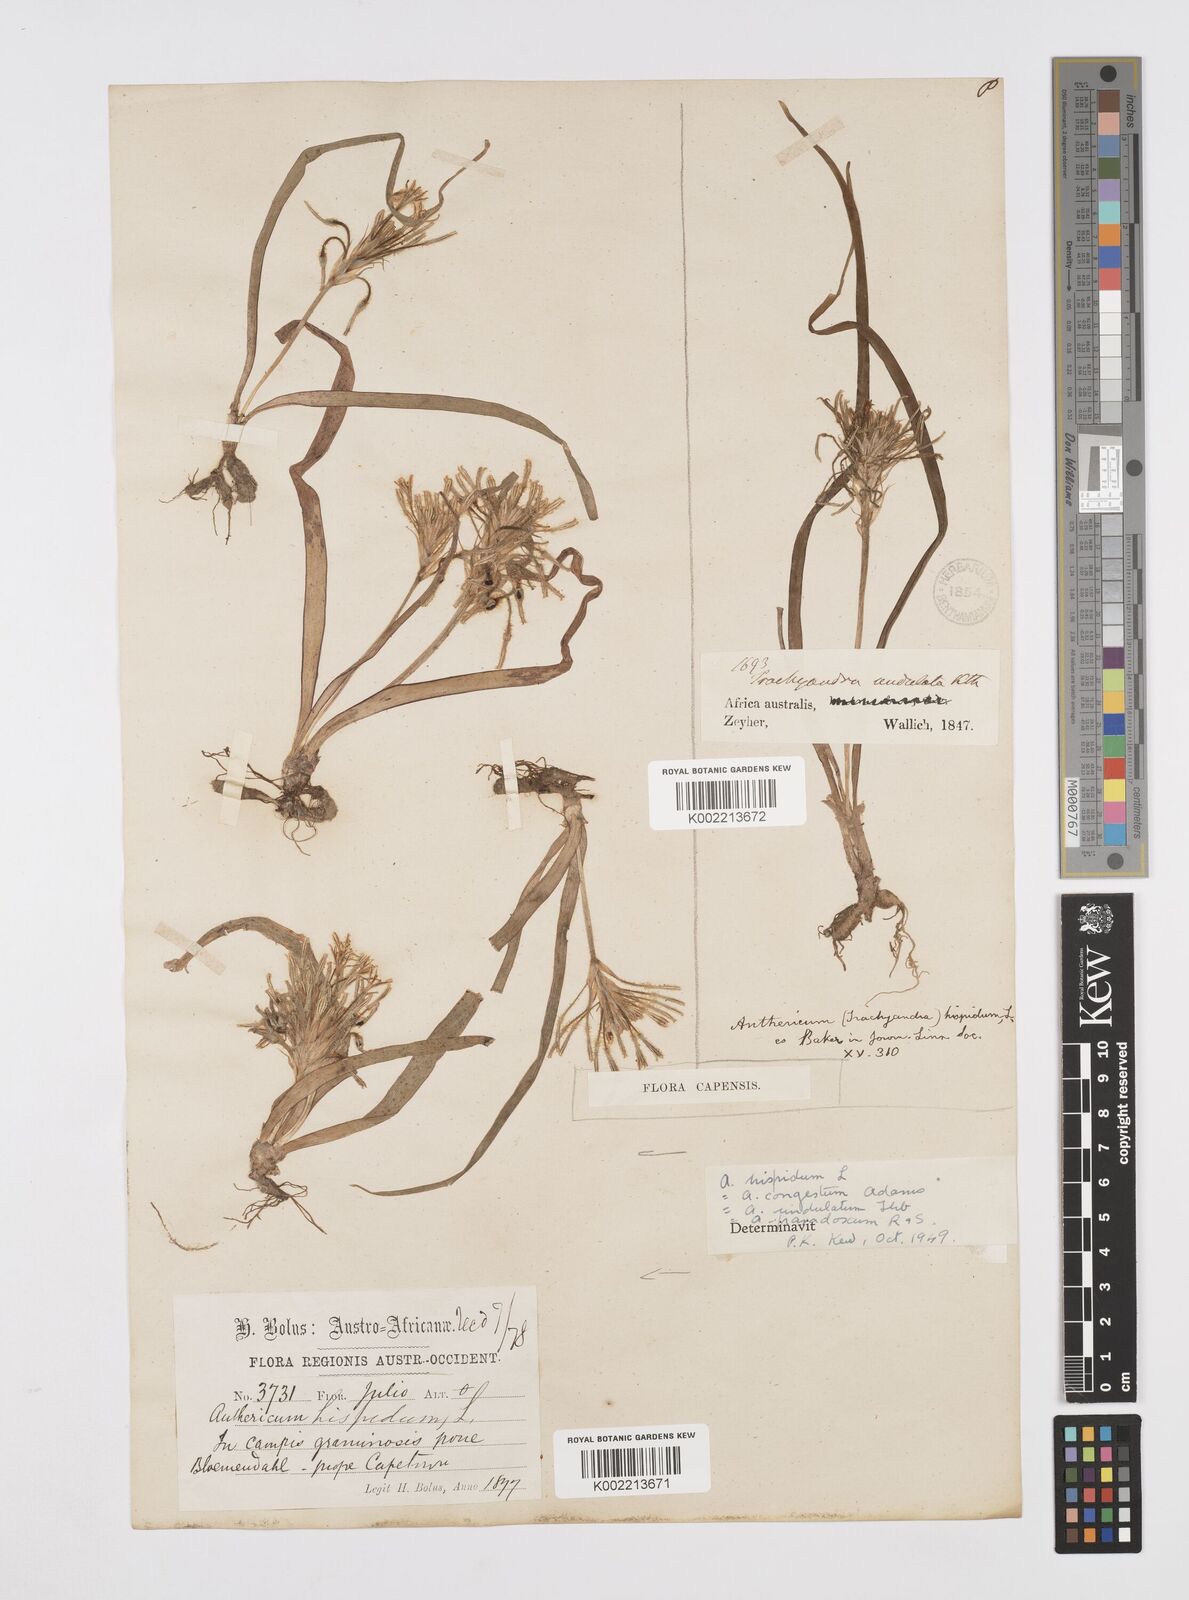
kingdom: Plantae
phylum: Tracheophyta
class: Liliopsida
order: Asparagales
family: Asphodelaceae
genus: Trachyandra
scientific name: Trachyandra hispida
